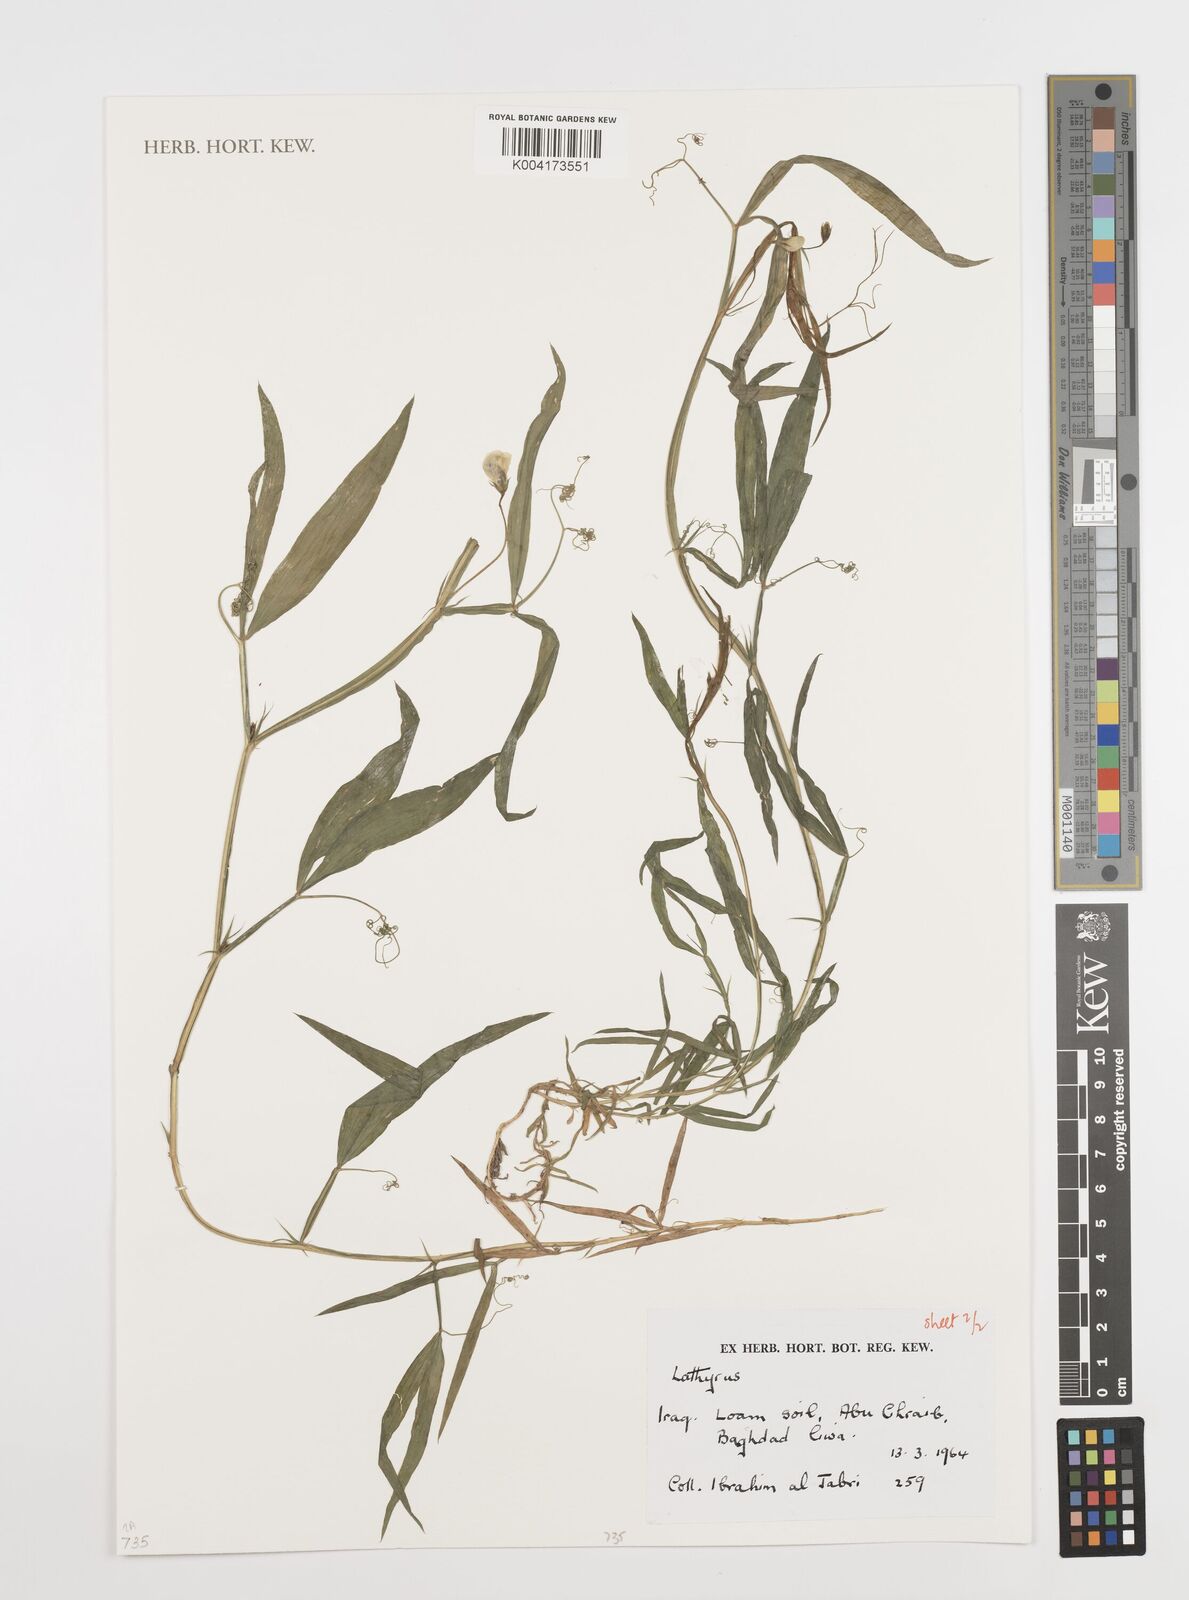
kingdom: Plantae
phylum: Tracheophyta
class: Magnoliopsida
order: Fabales
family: Fabaceae
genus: Lathyrus
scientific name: Lathyrus
